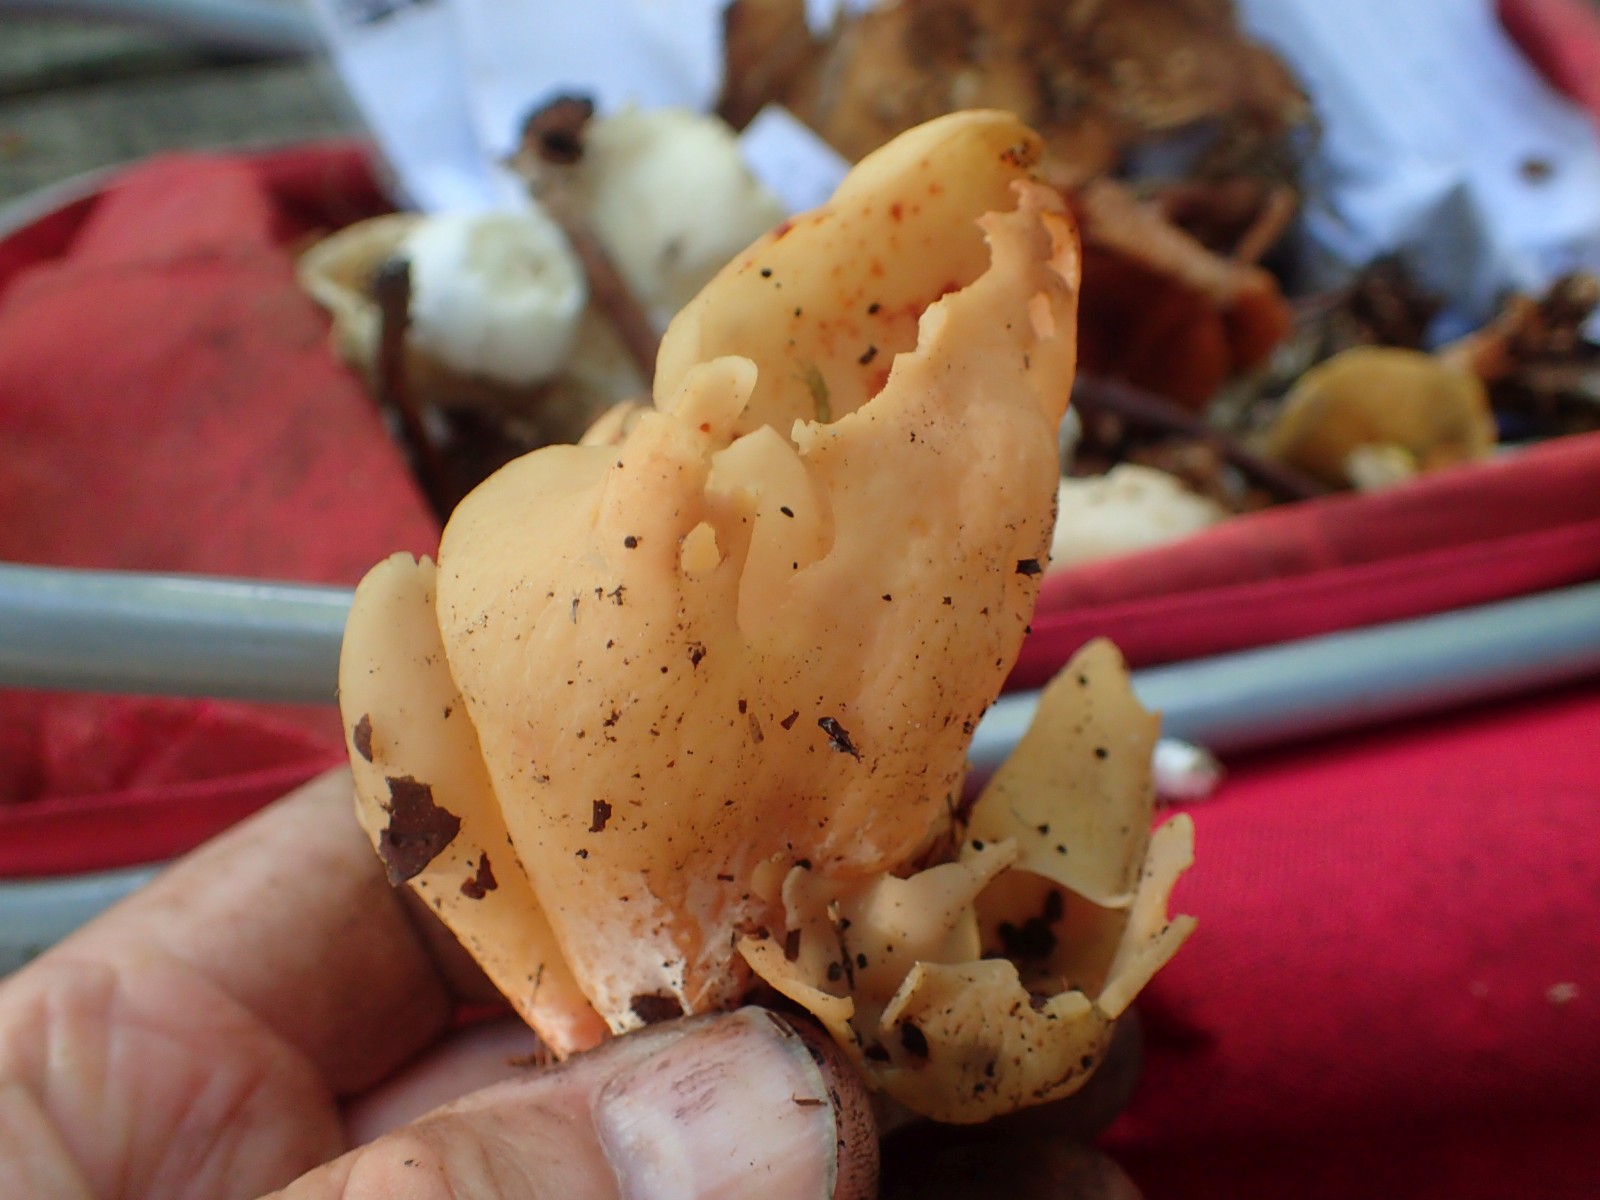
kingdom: Fungi
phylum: Ascomycota
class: Pezizomycetes
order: Pezizales
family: Otideaceae
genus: Otidea
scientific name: Otidea onotica
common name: æsel-ørebæger
